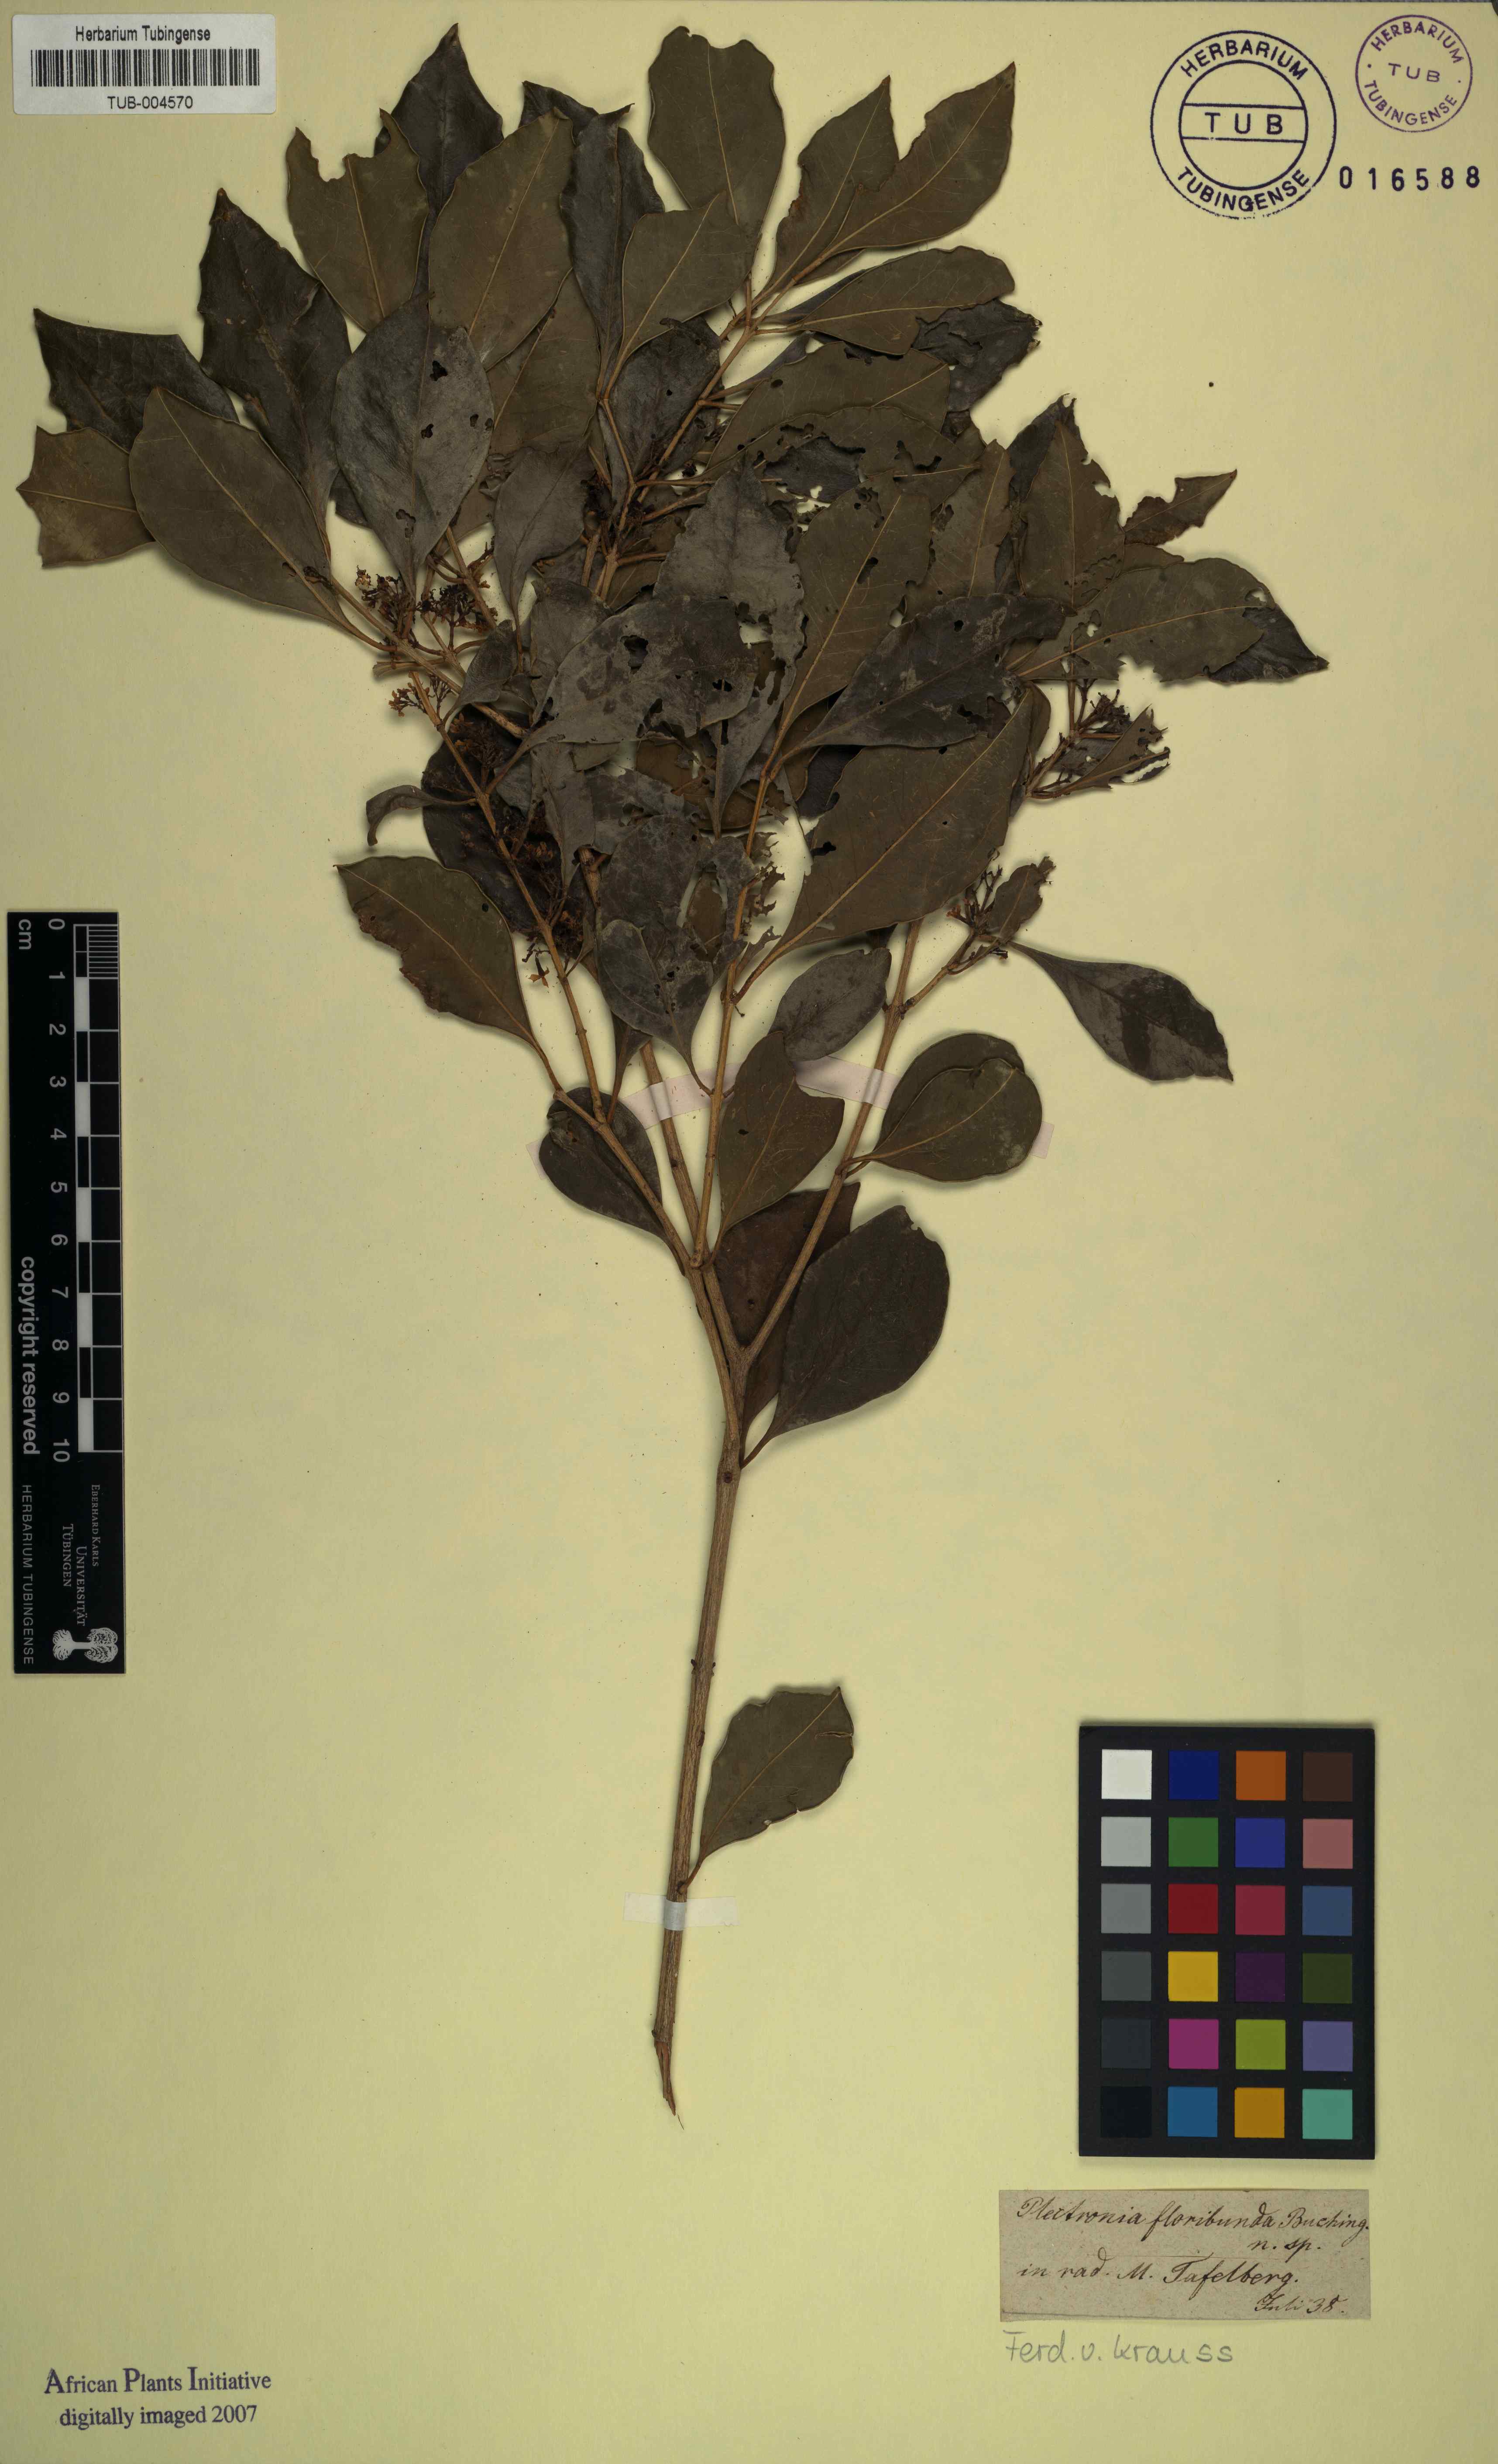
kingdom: Plantae
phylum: Tracheophyta
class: Magnoliopsida
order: Myrtales
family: Lythraceae
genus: Plectronia
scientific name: Plectronia floribunda
